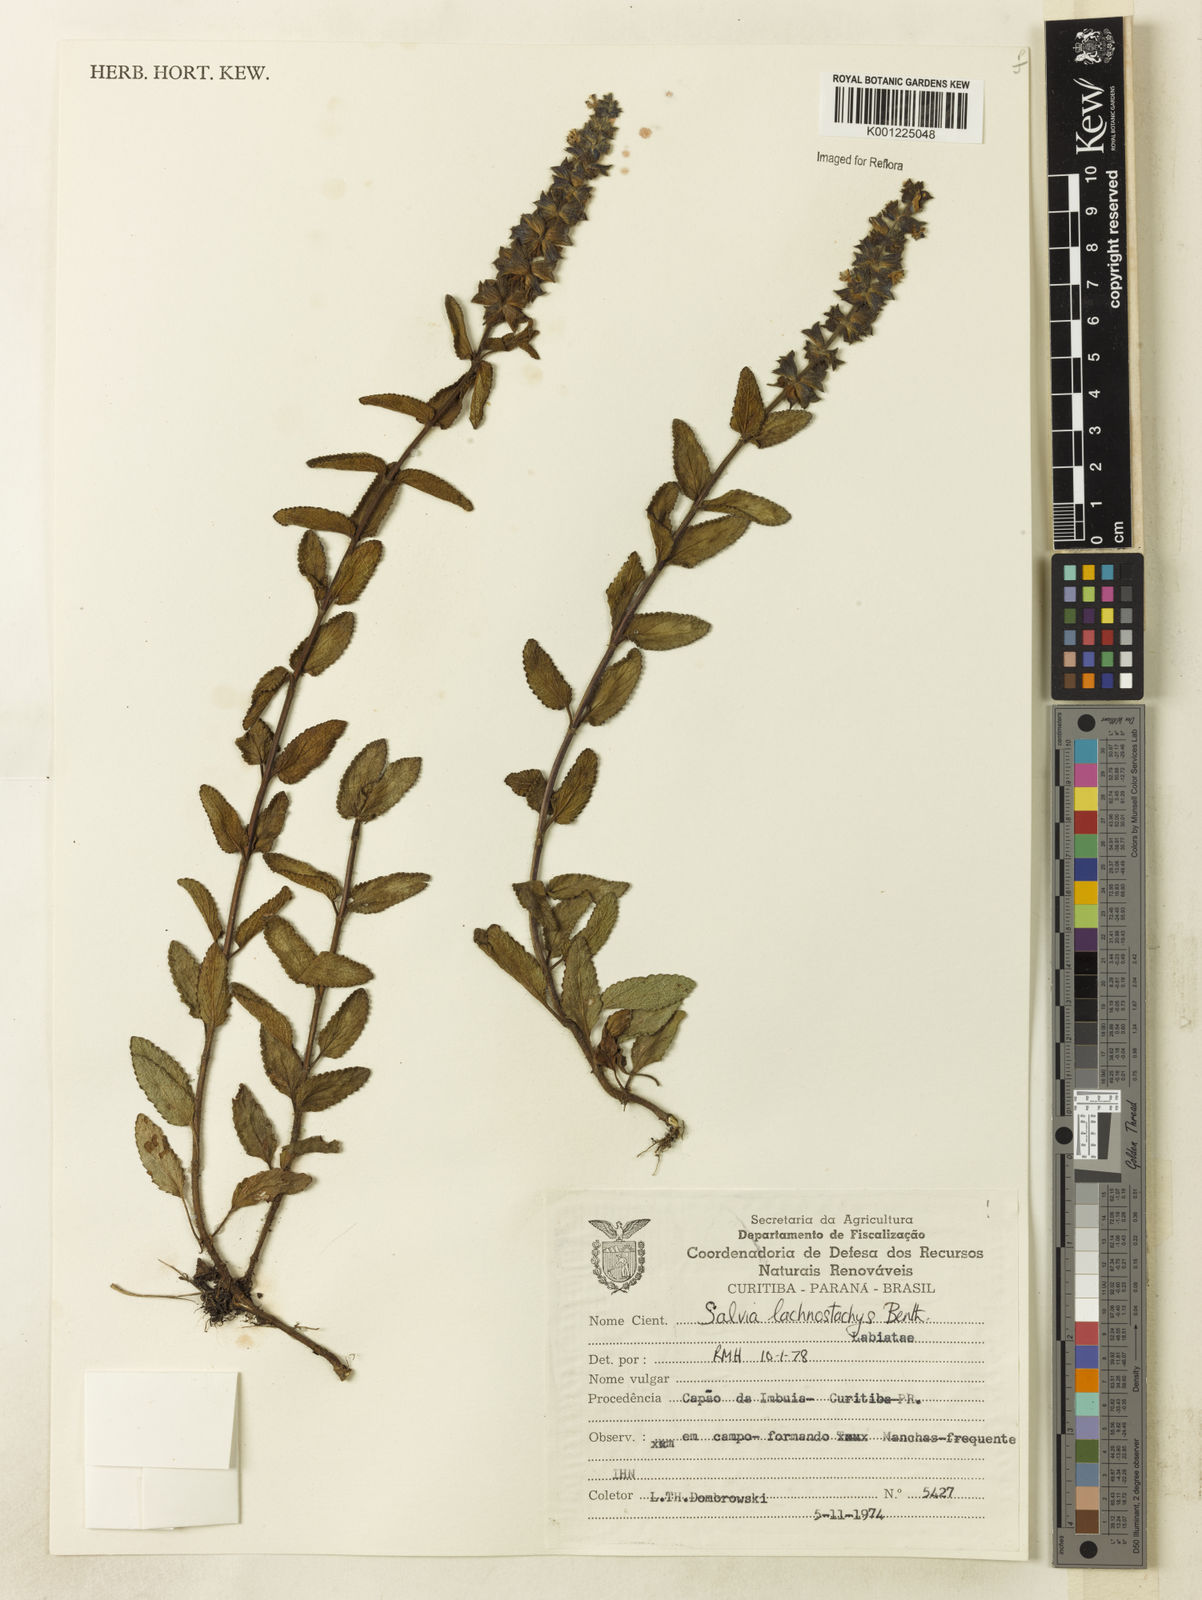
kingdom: Plantae
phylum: Tracheophyta
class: Magnoliopsida
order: Lamiales
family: Lamiaceae
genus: Salvia
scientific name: Salvia lachnostachys
